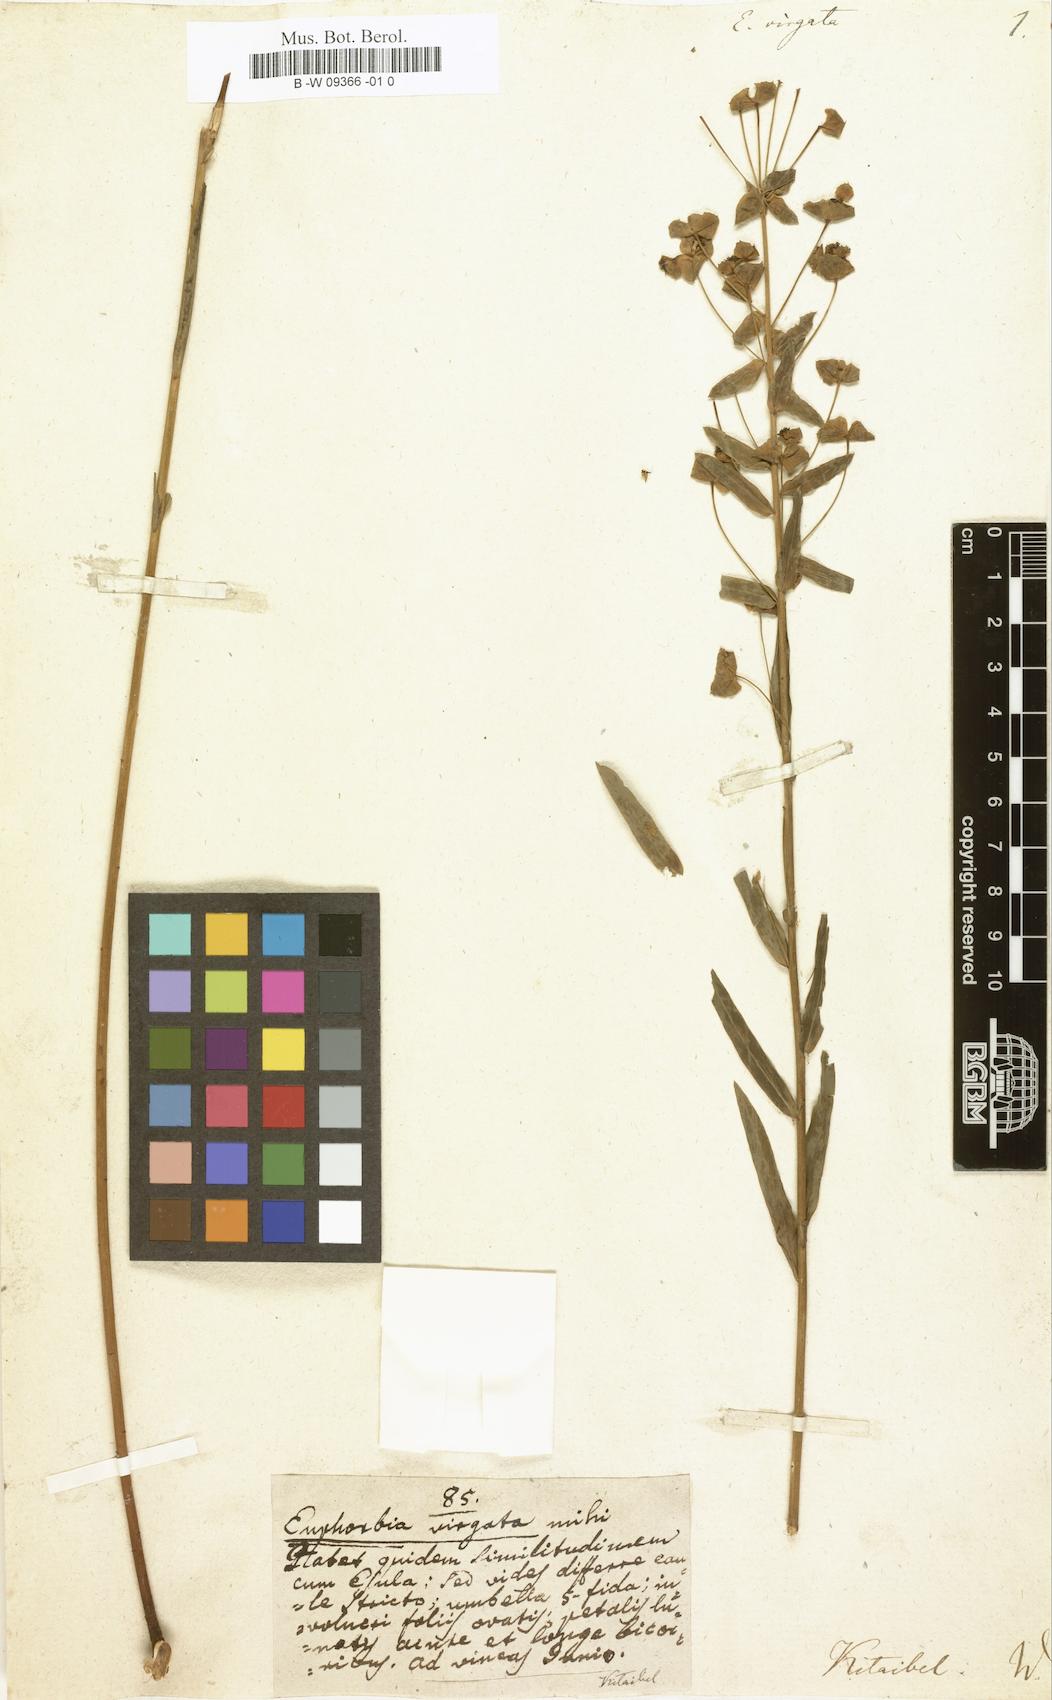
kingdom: Plantae
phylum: Tracheophyta
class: Magnoliopsida
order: Malpighiales
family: Euphorbiaceae
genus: Euphorbia
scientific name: Euphorbia virgata
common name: Leafy spurge
